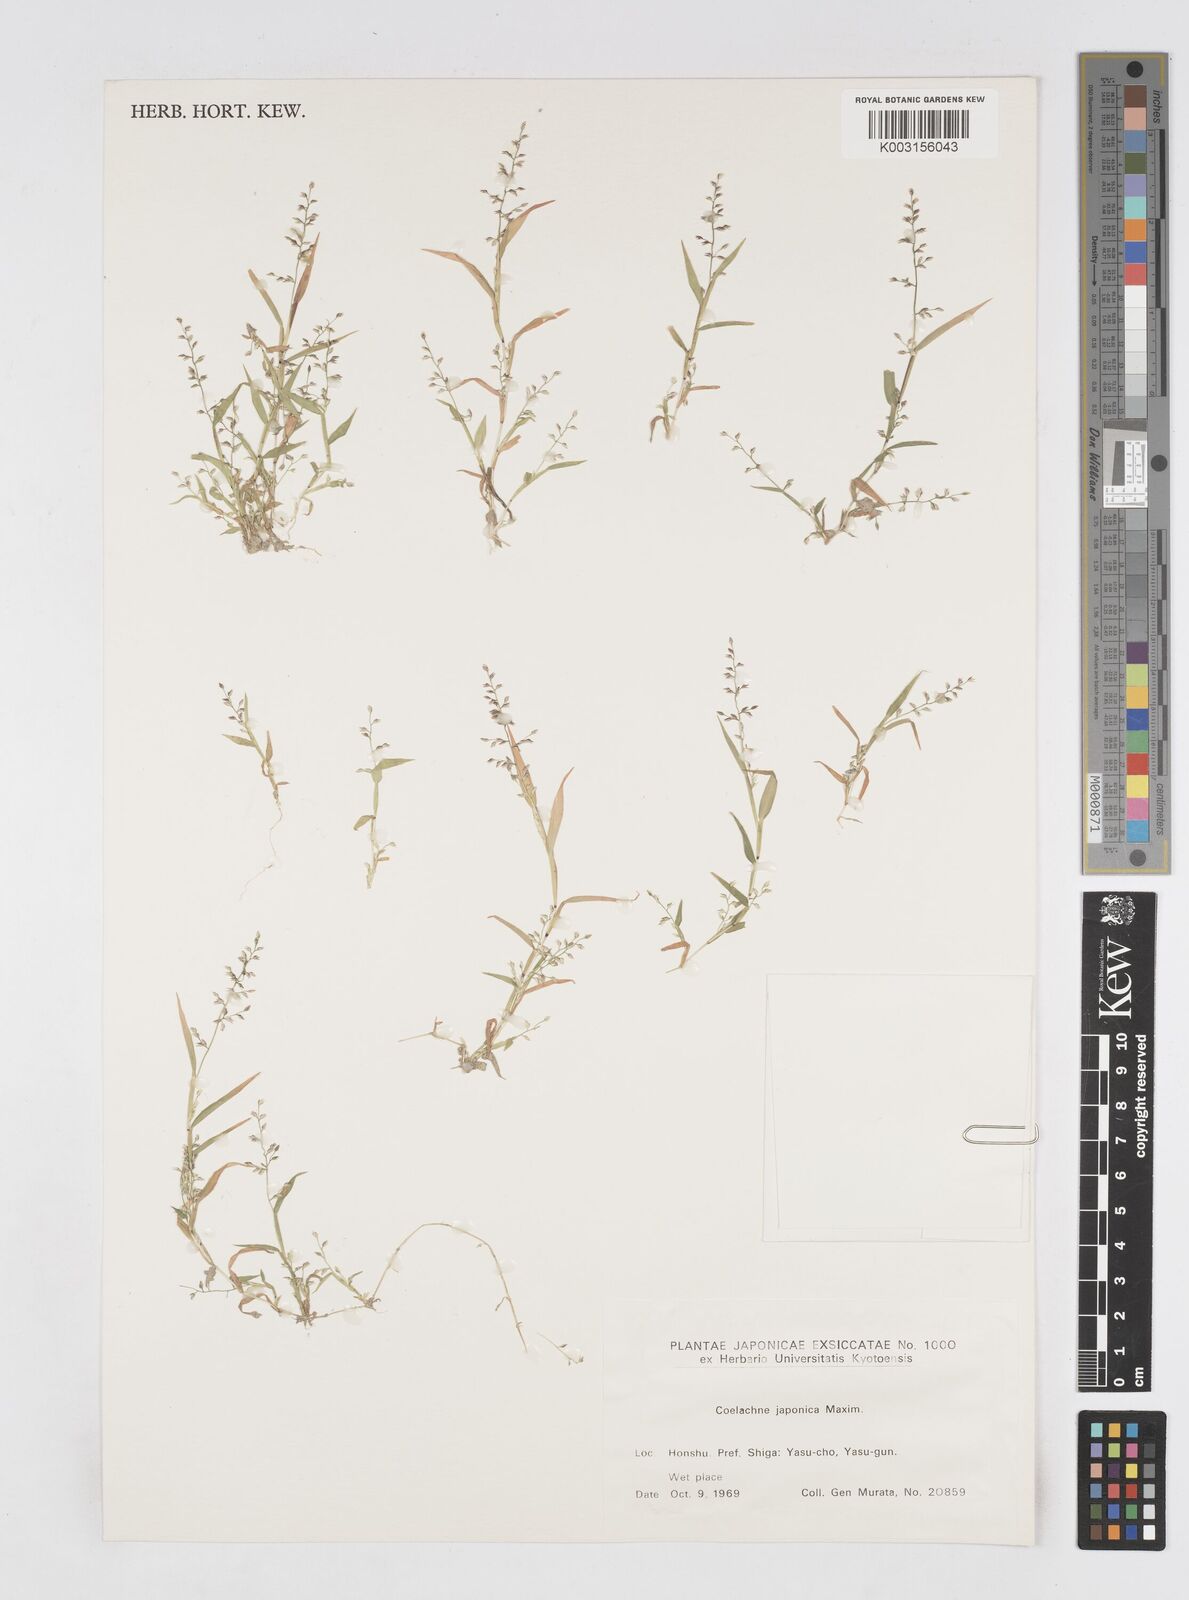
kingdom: Plantae
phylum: Tracheophyta
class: Liliopsida
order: Poales
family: Poaceae
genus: Coelachne
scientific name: Coelachne japonica
